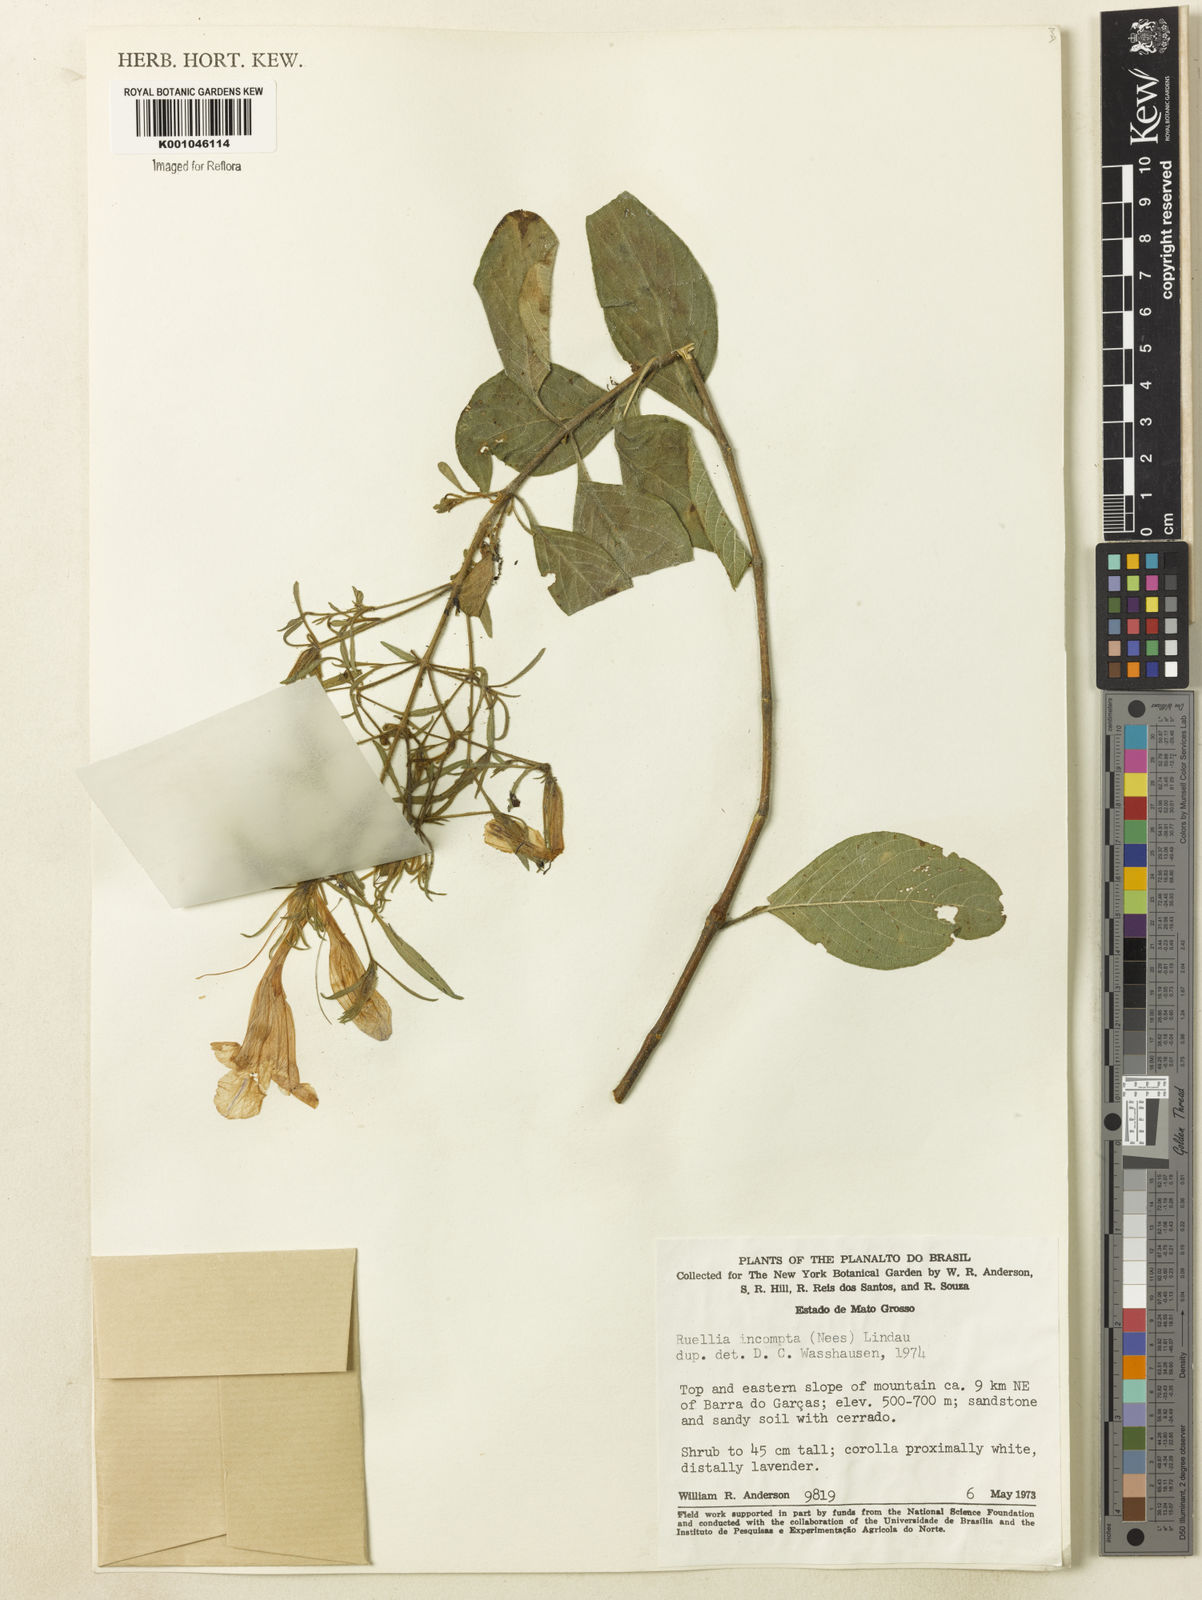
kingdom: Plantae
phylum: Tracheophyta
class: Magnoliopsida
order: Lamiales
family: Acanthaceae
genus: Ruellia
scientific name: Ruellia
